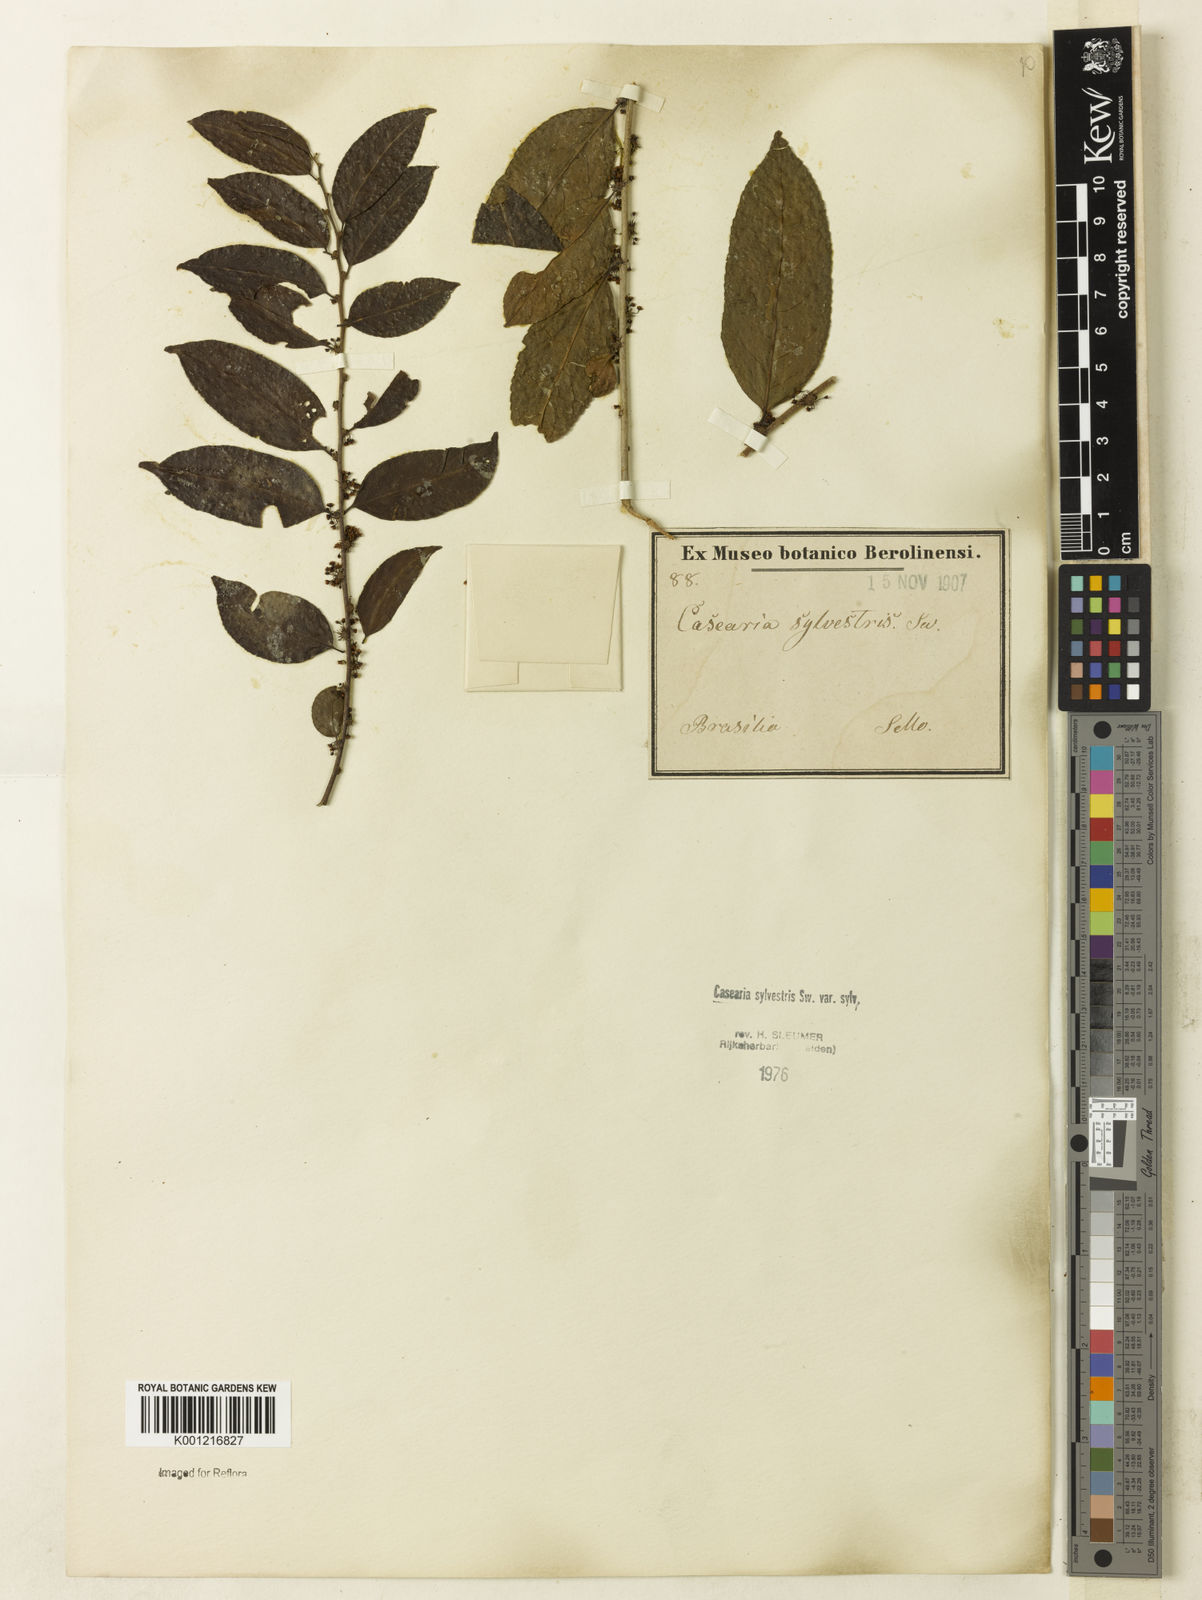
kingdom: Plantae
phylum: Tracheophyta
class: Magnoliopsida
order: Malpighiales
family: Salicaceae
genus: Casearia
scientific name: Casearia sylvestris
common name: Wild sage
